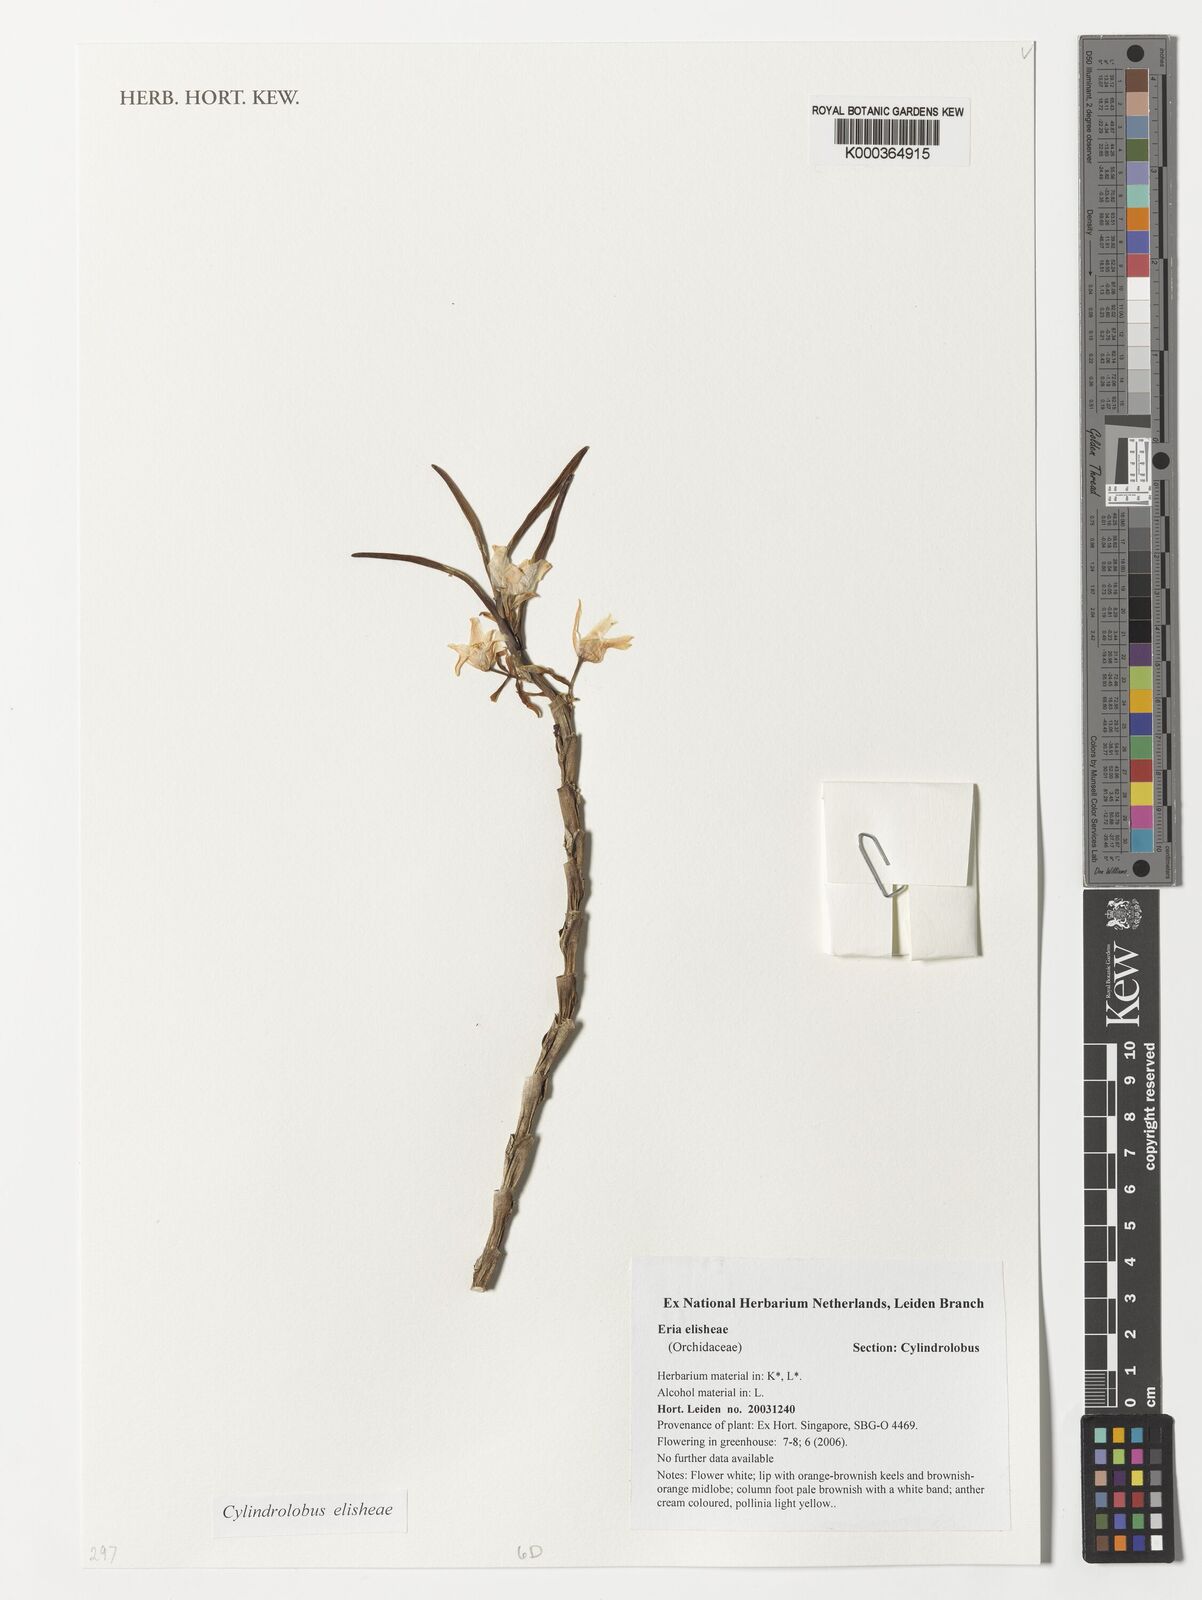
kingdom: Plantae
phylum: Tracheophyta
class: Liliopsida
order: Asparagales
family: Orchidaceae
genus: Cylindrolobus
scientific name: Cylindrolobus elisheae
